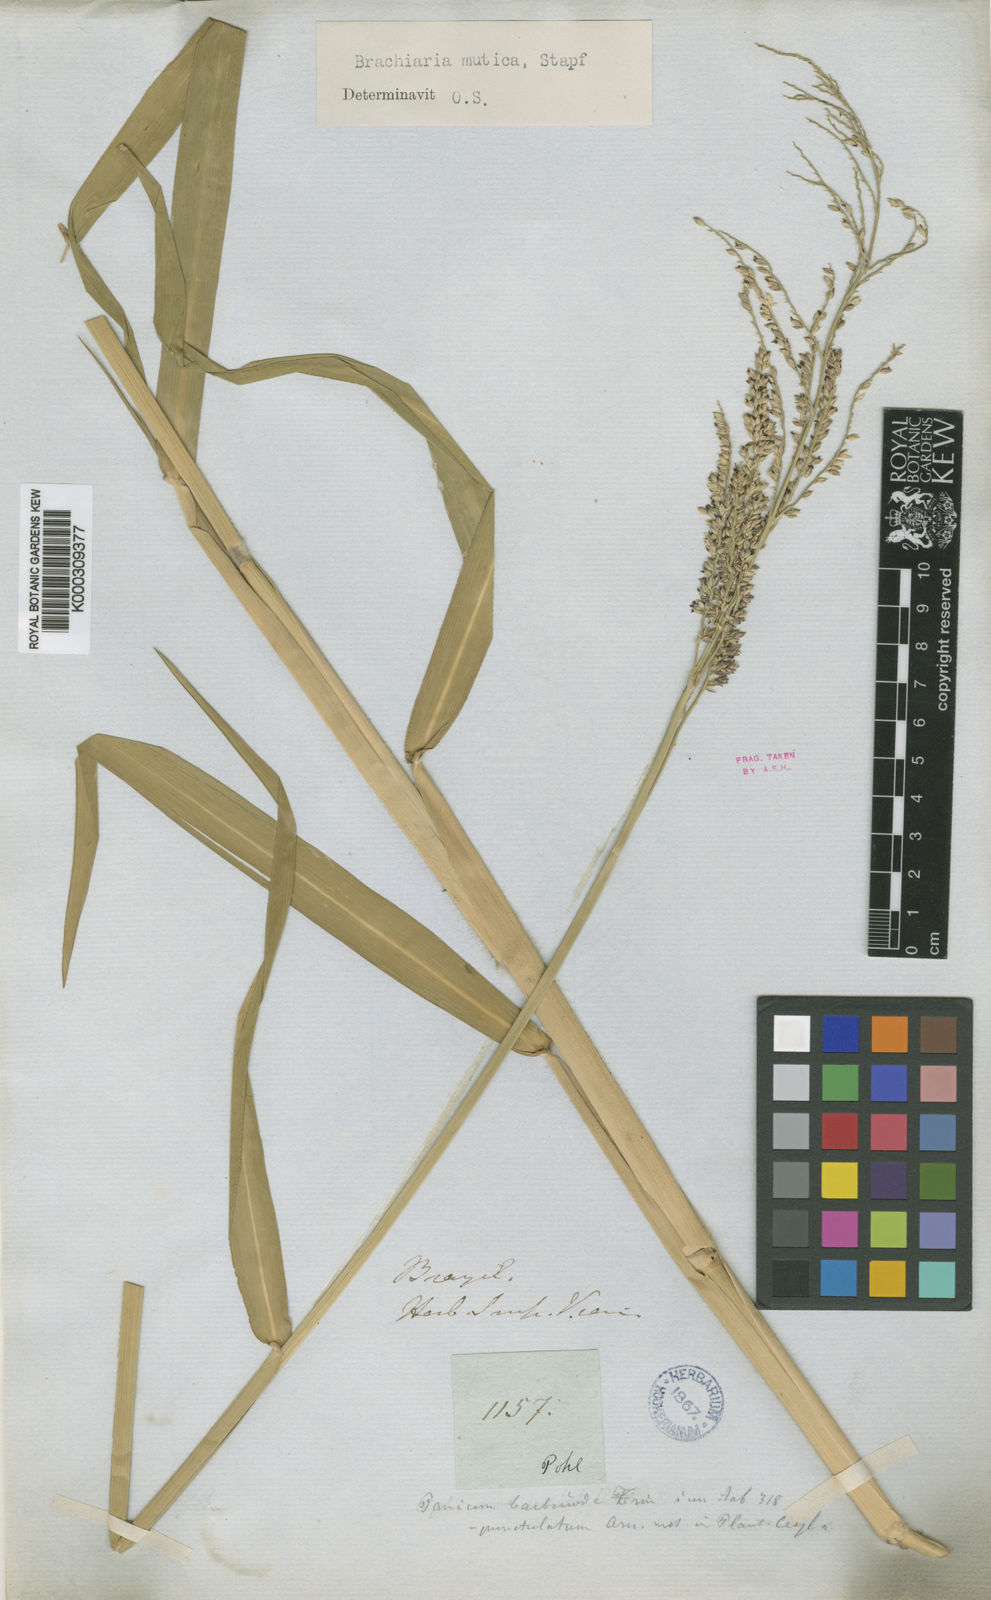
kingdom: Plantae
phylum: Tracheophyta
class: Liliopsida
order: Poales
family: Poaceae
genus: Urochloa
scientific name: Urochloa mutica
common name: Para grass
